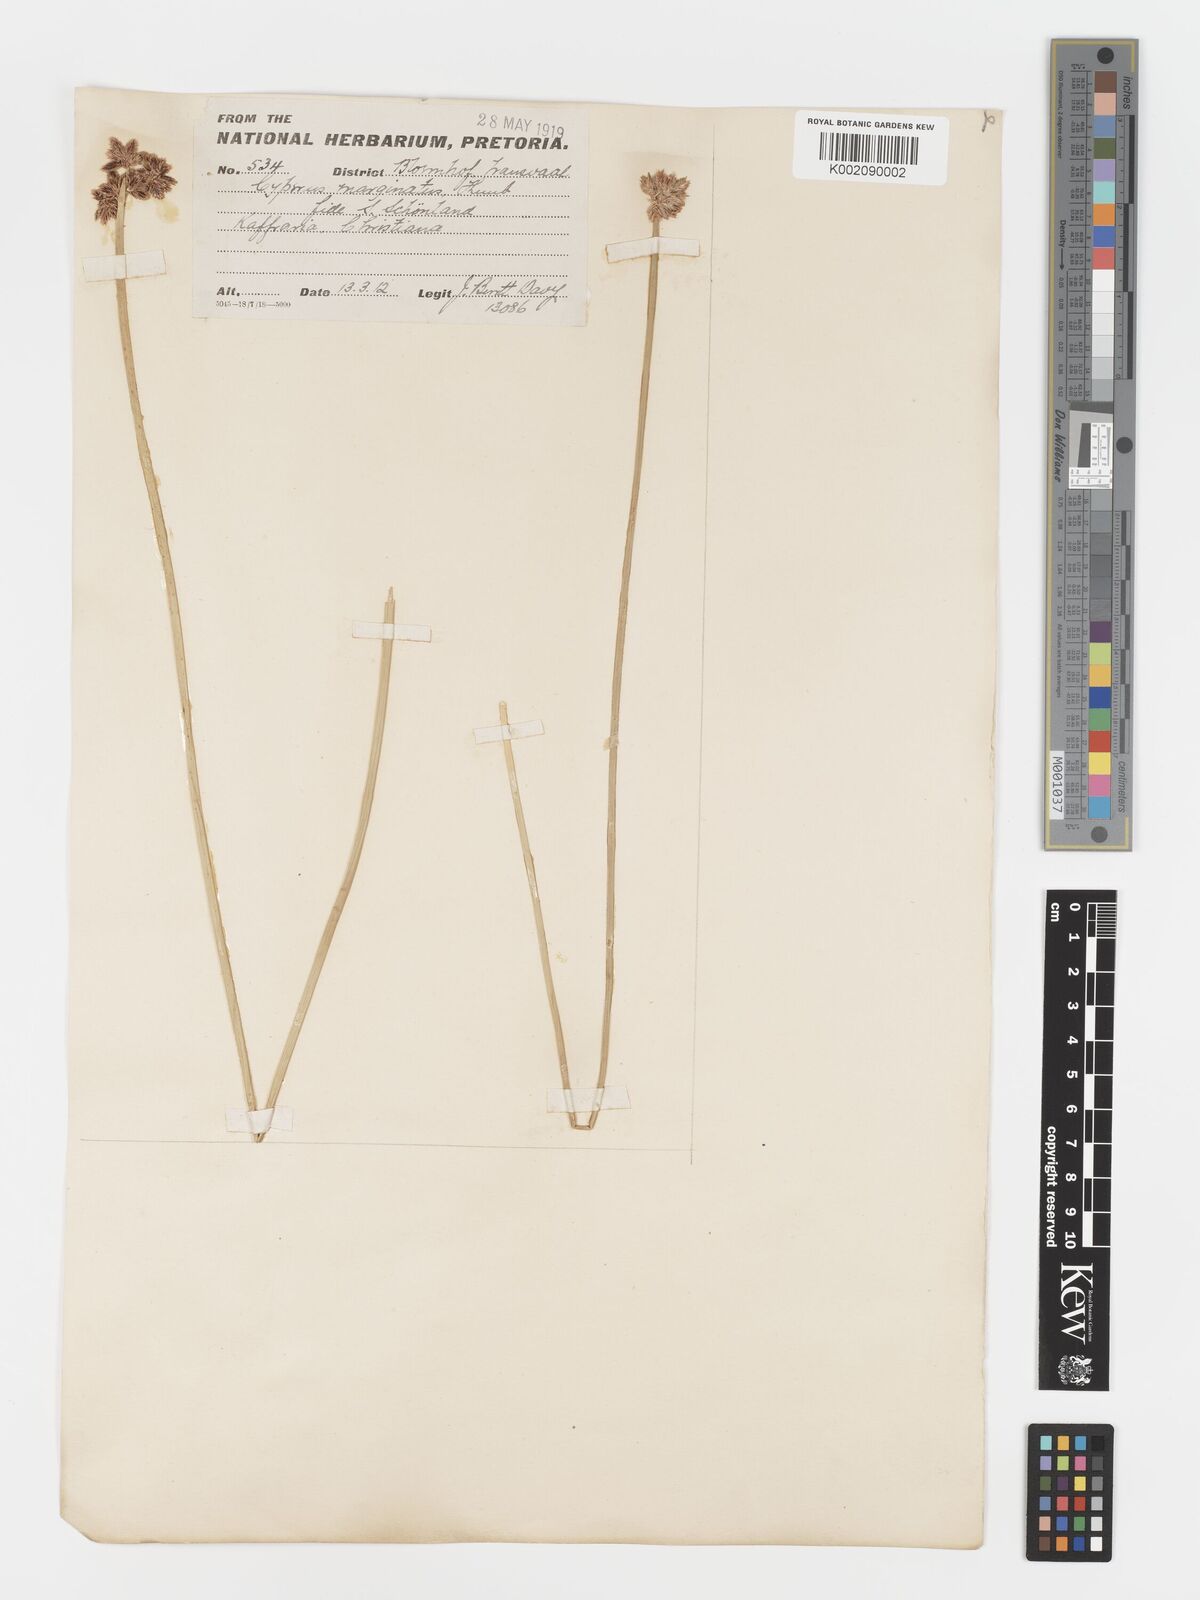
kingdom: Plantae
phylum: Tracheophyta
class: Liliopsida
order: Poales
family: Cyperaceae
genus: Cyperus
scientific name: Cyperus marginatus
